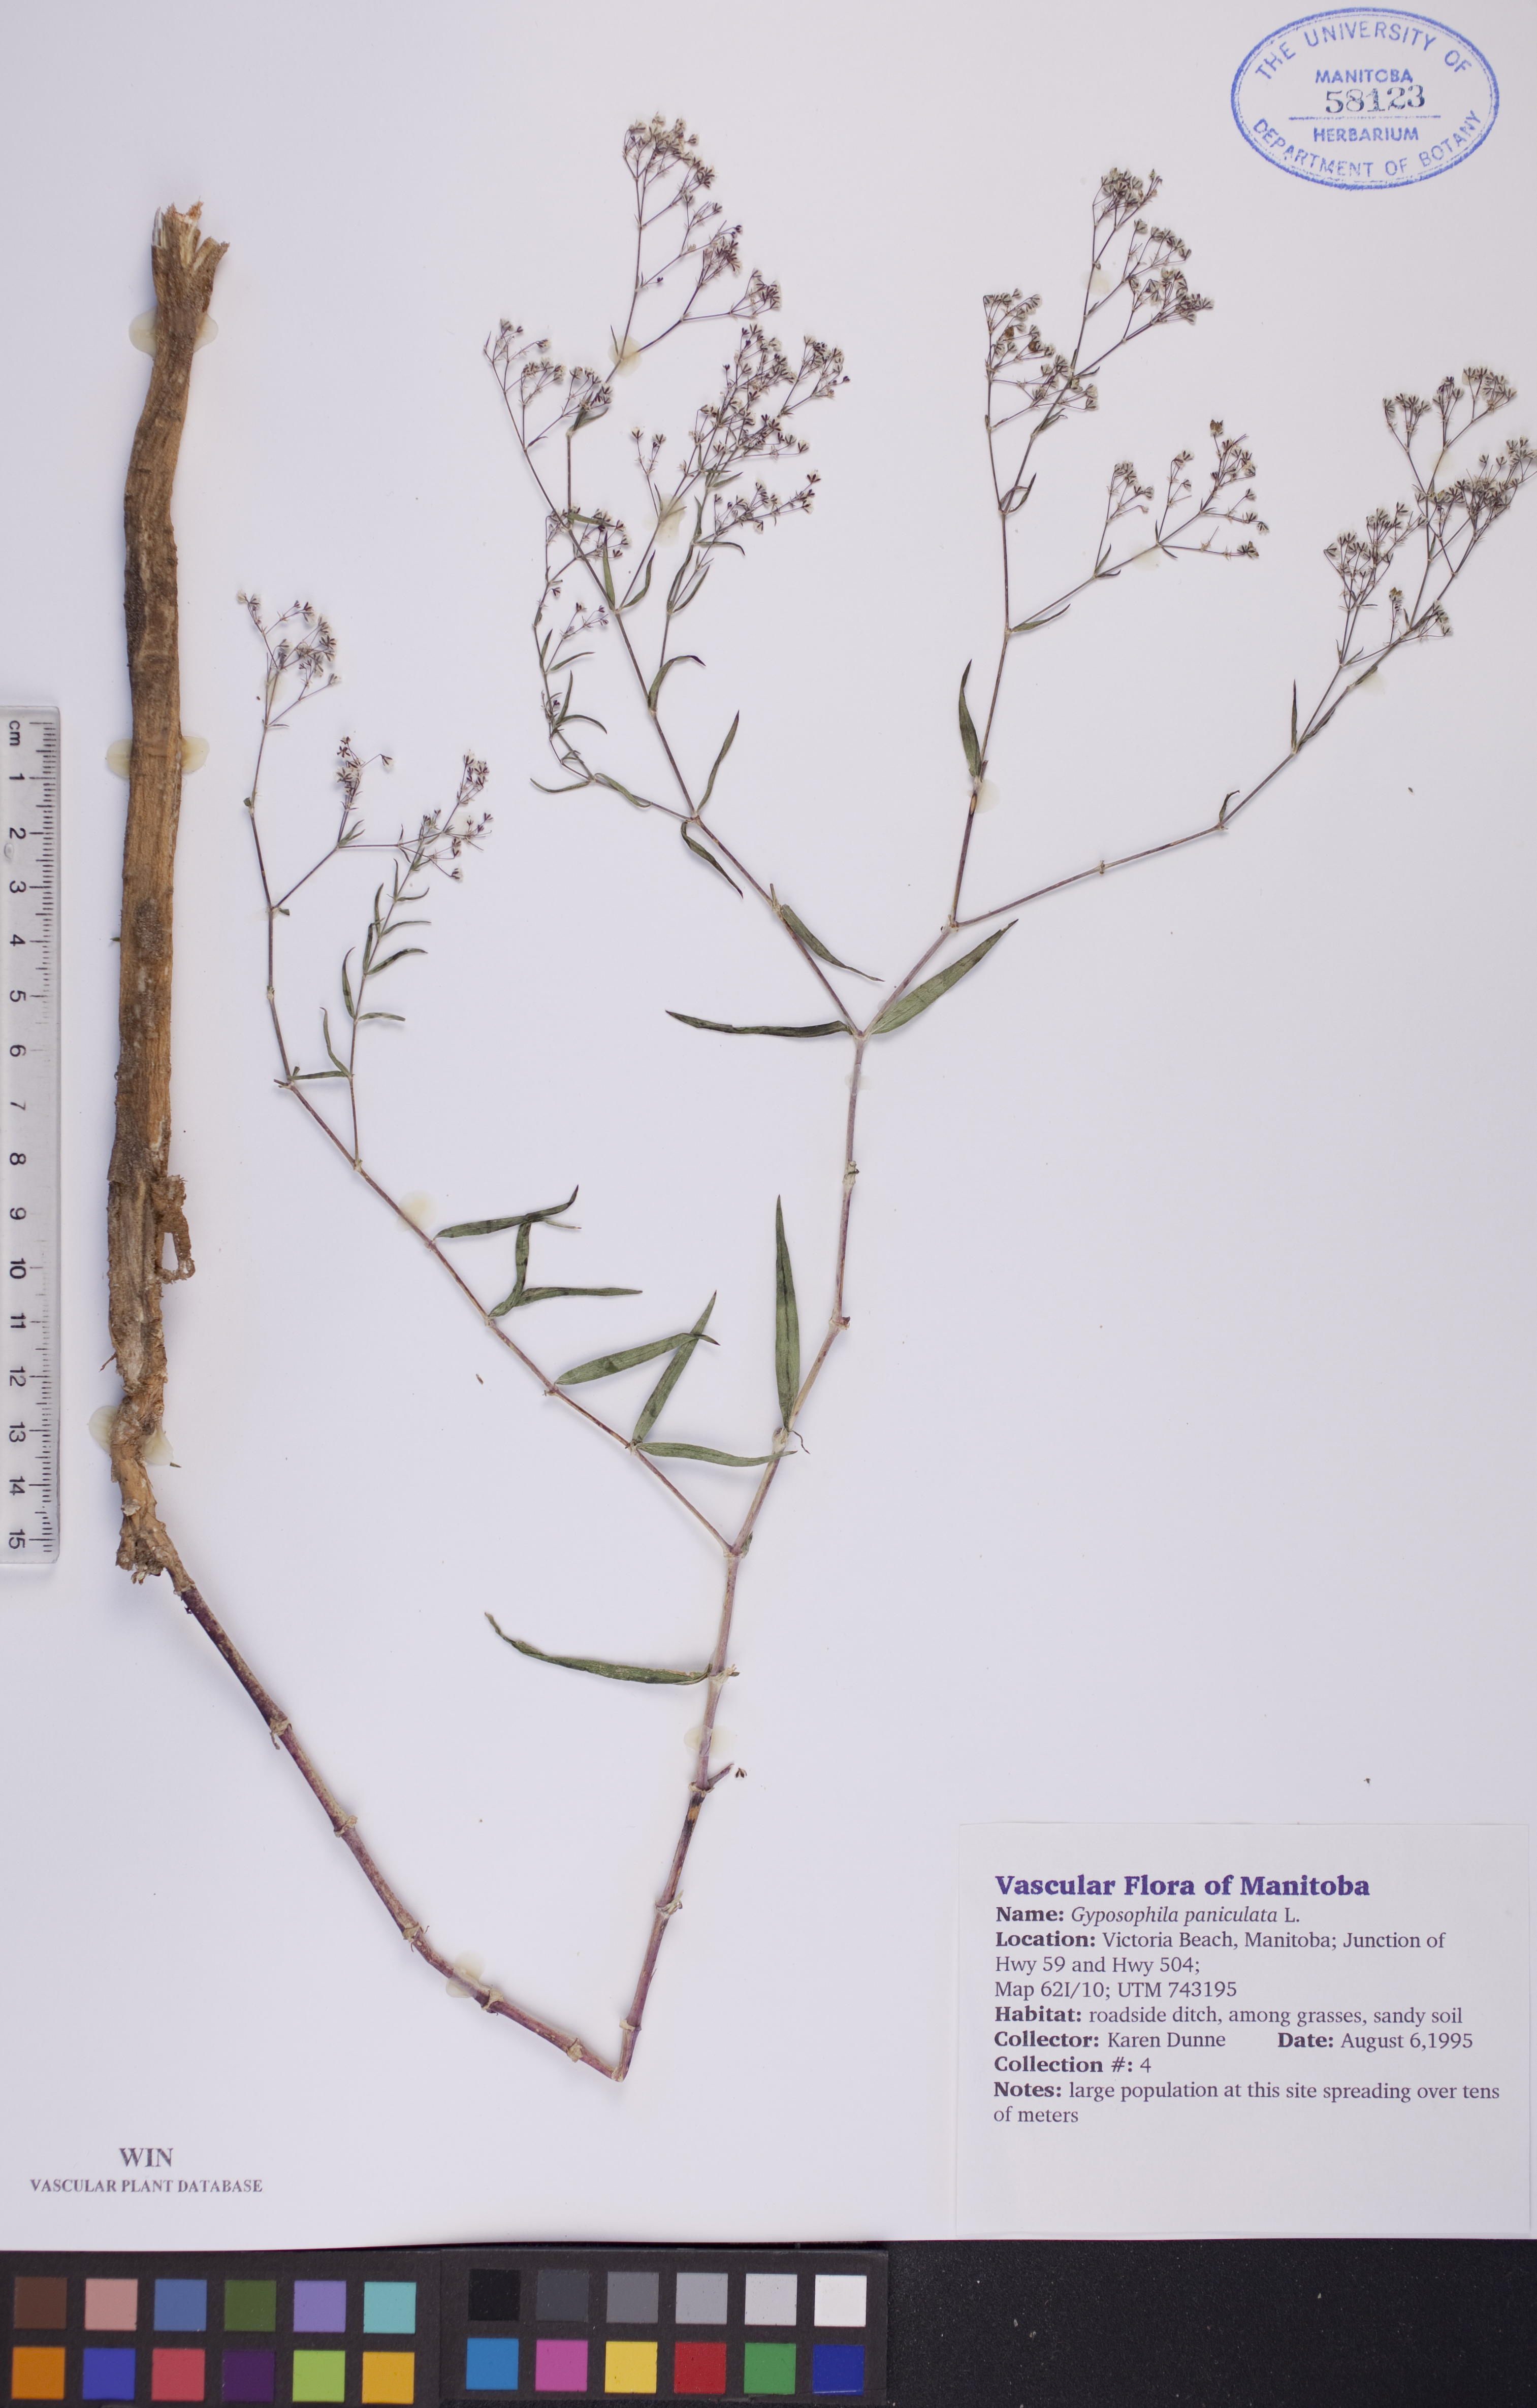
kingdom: Plantae
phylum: Tracheophyta
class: Magnoliopsida
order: Caryophyllales
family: Caryophyllaceae
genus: Gypsophila
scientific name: Gypsophila paniculata
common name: Baby's-breath
